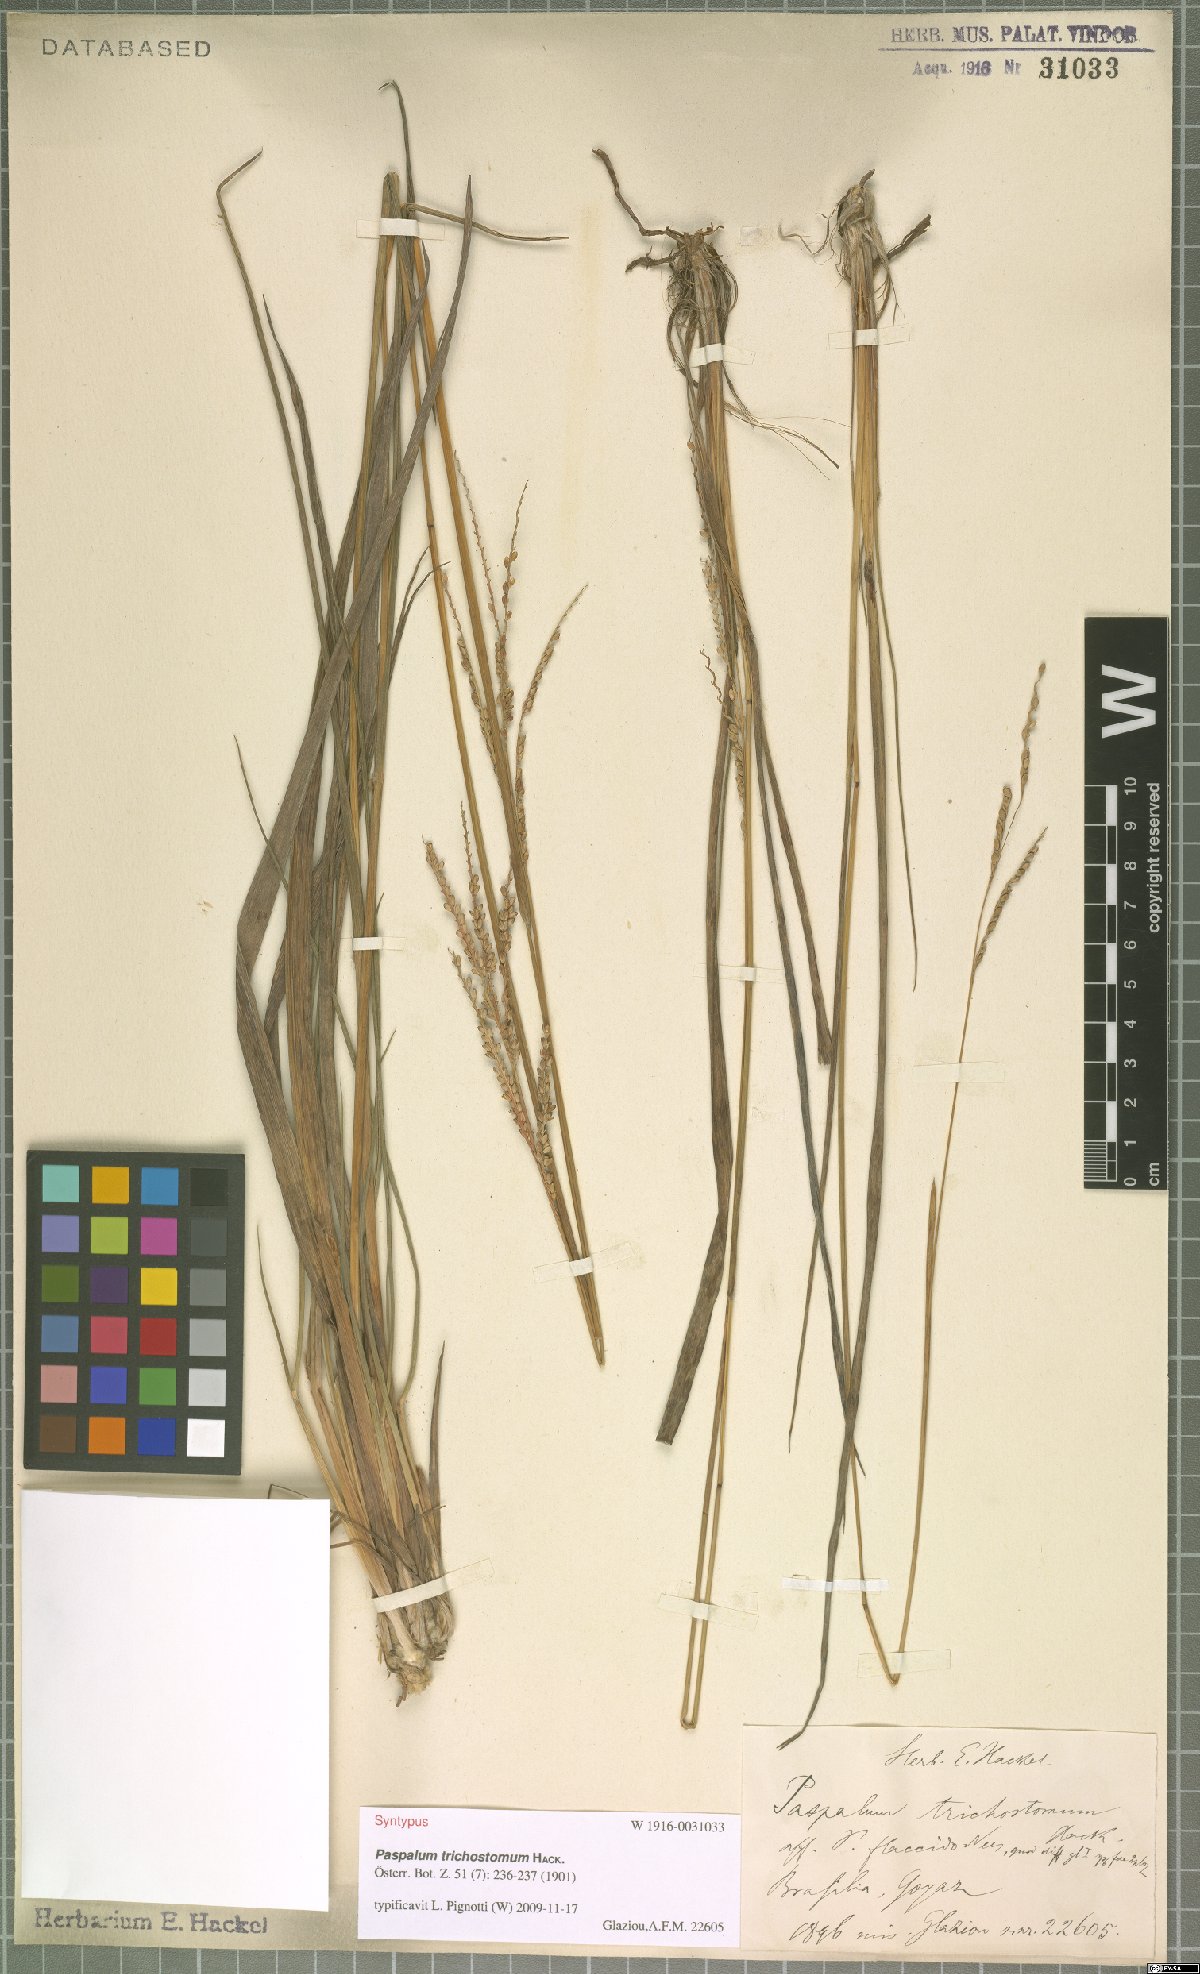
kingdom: Plantae
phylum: Tracheophyta
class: Liliopsida
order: Poales
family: Poaceae
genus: Paspalum
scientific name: Paspalum trichostomum
